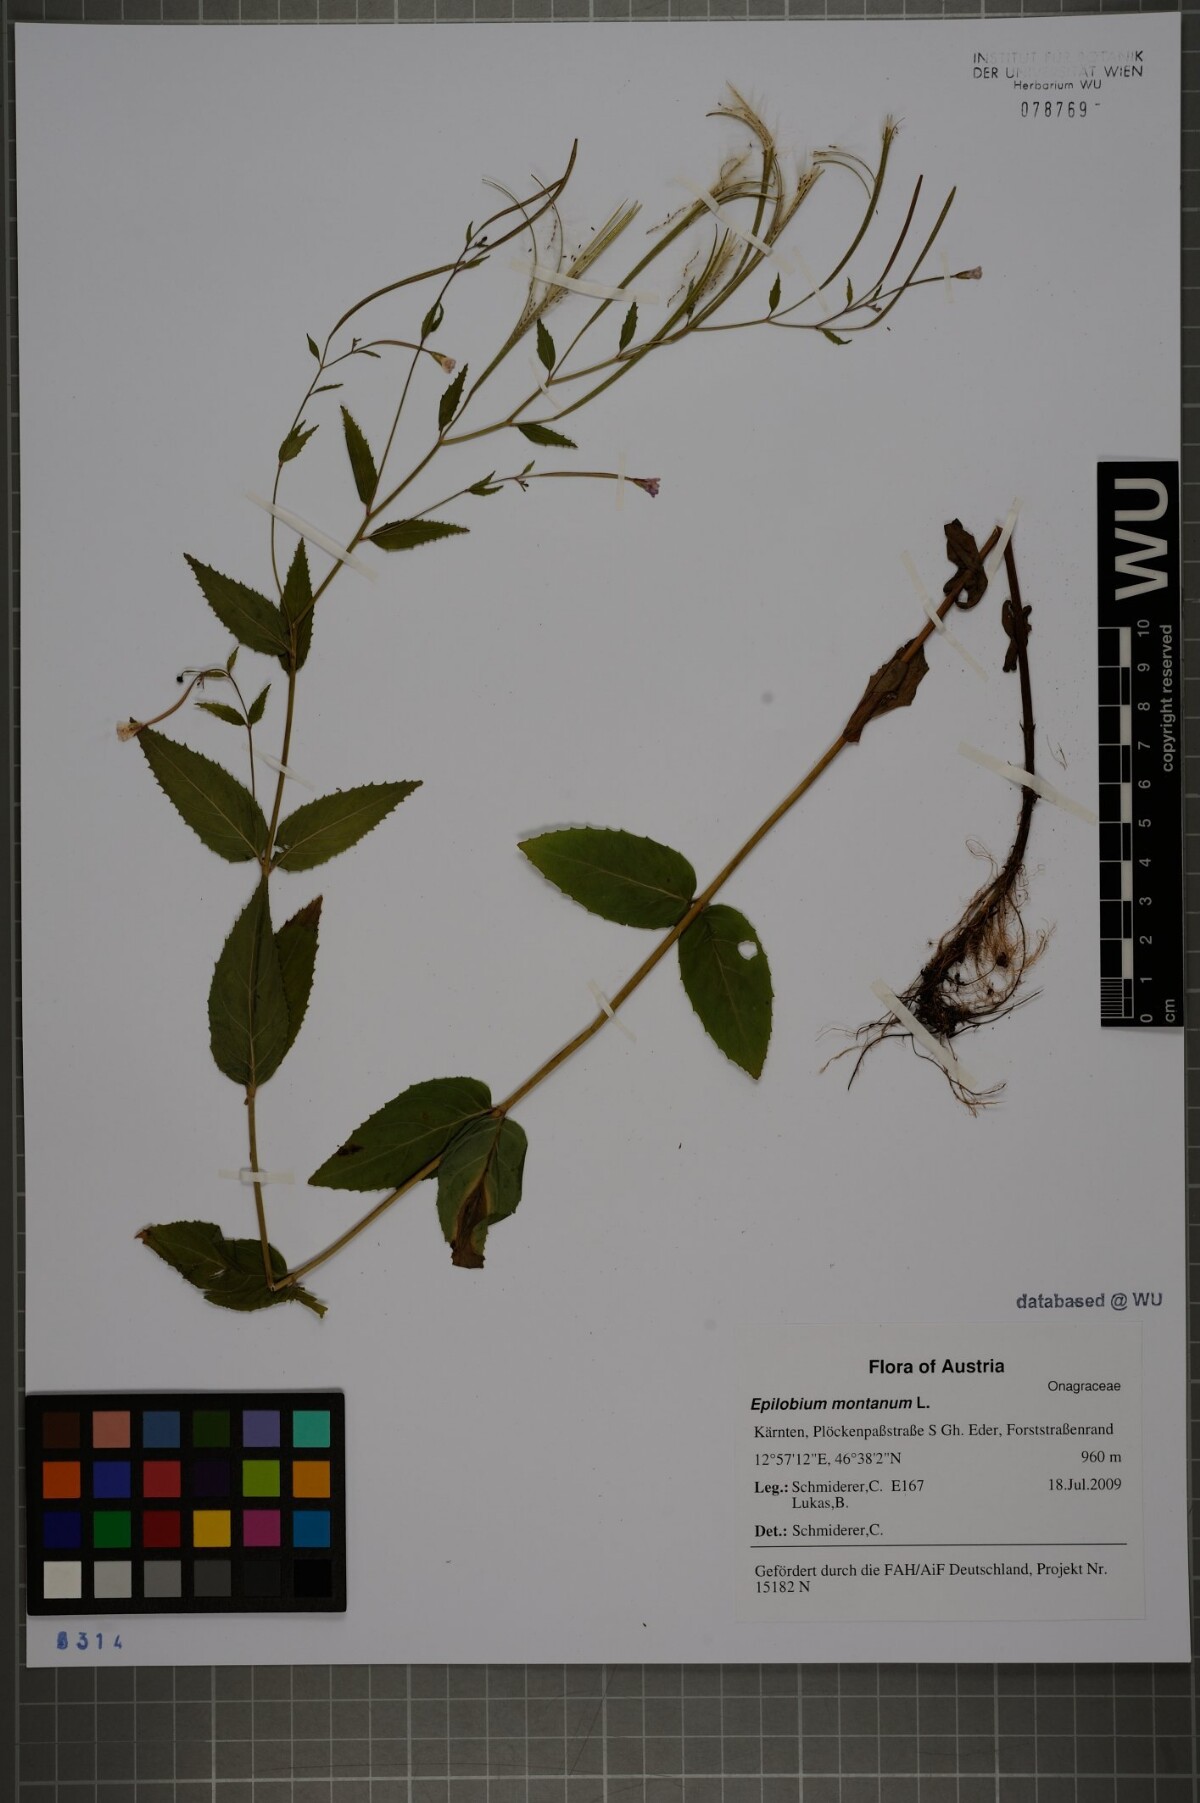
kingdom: Plantae
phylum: Tracheophyta
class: Magnoliopsida
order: Myrtales
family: Onagraceae
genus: Epilobium
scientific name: Epilobium montanum
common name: Broad-leaved willowherb
